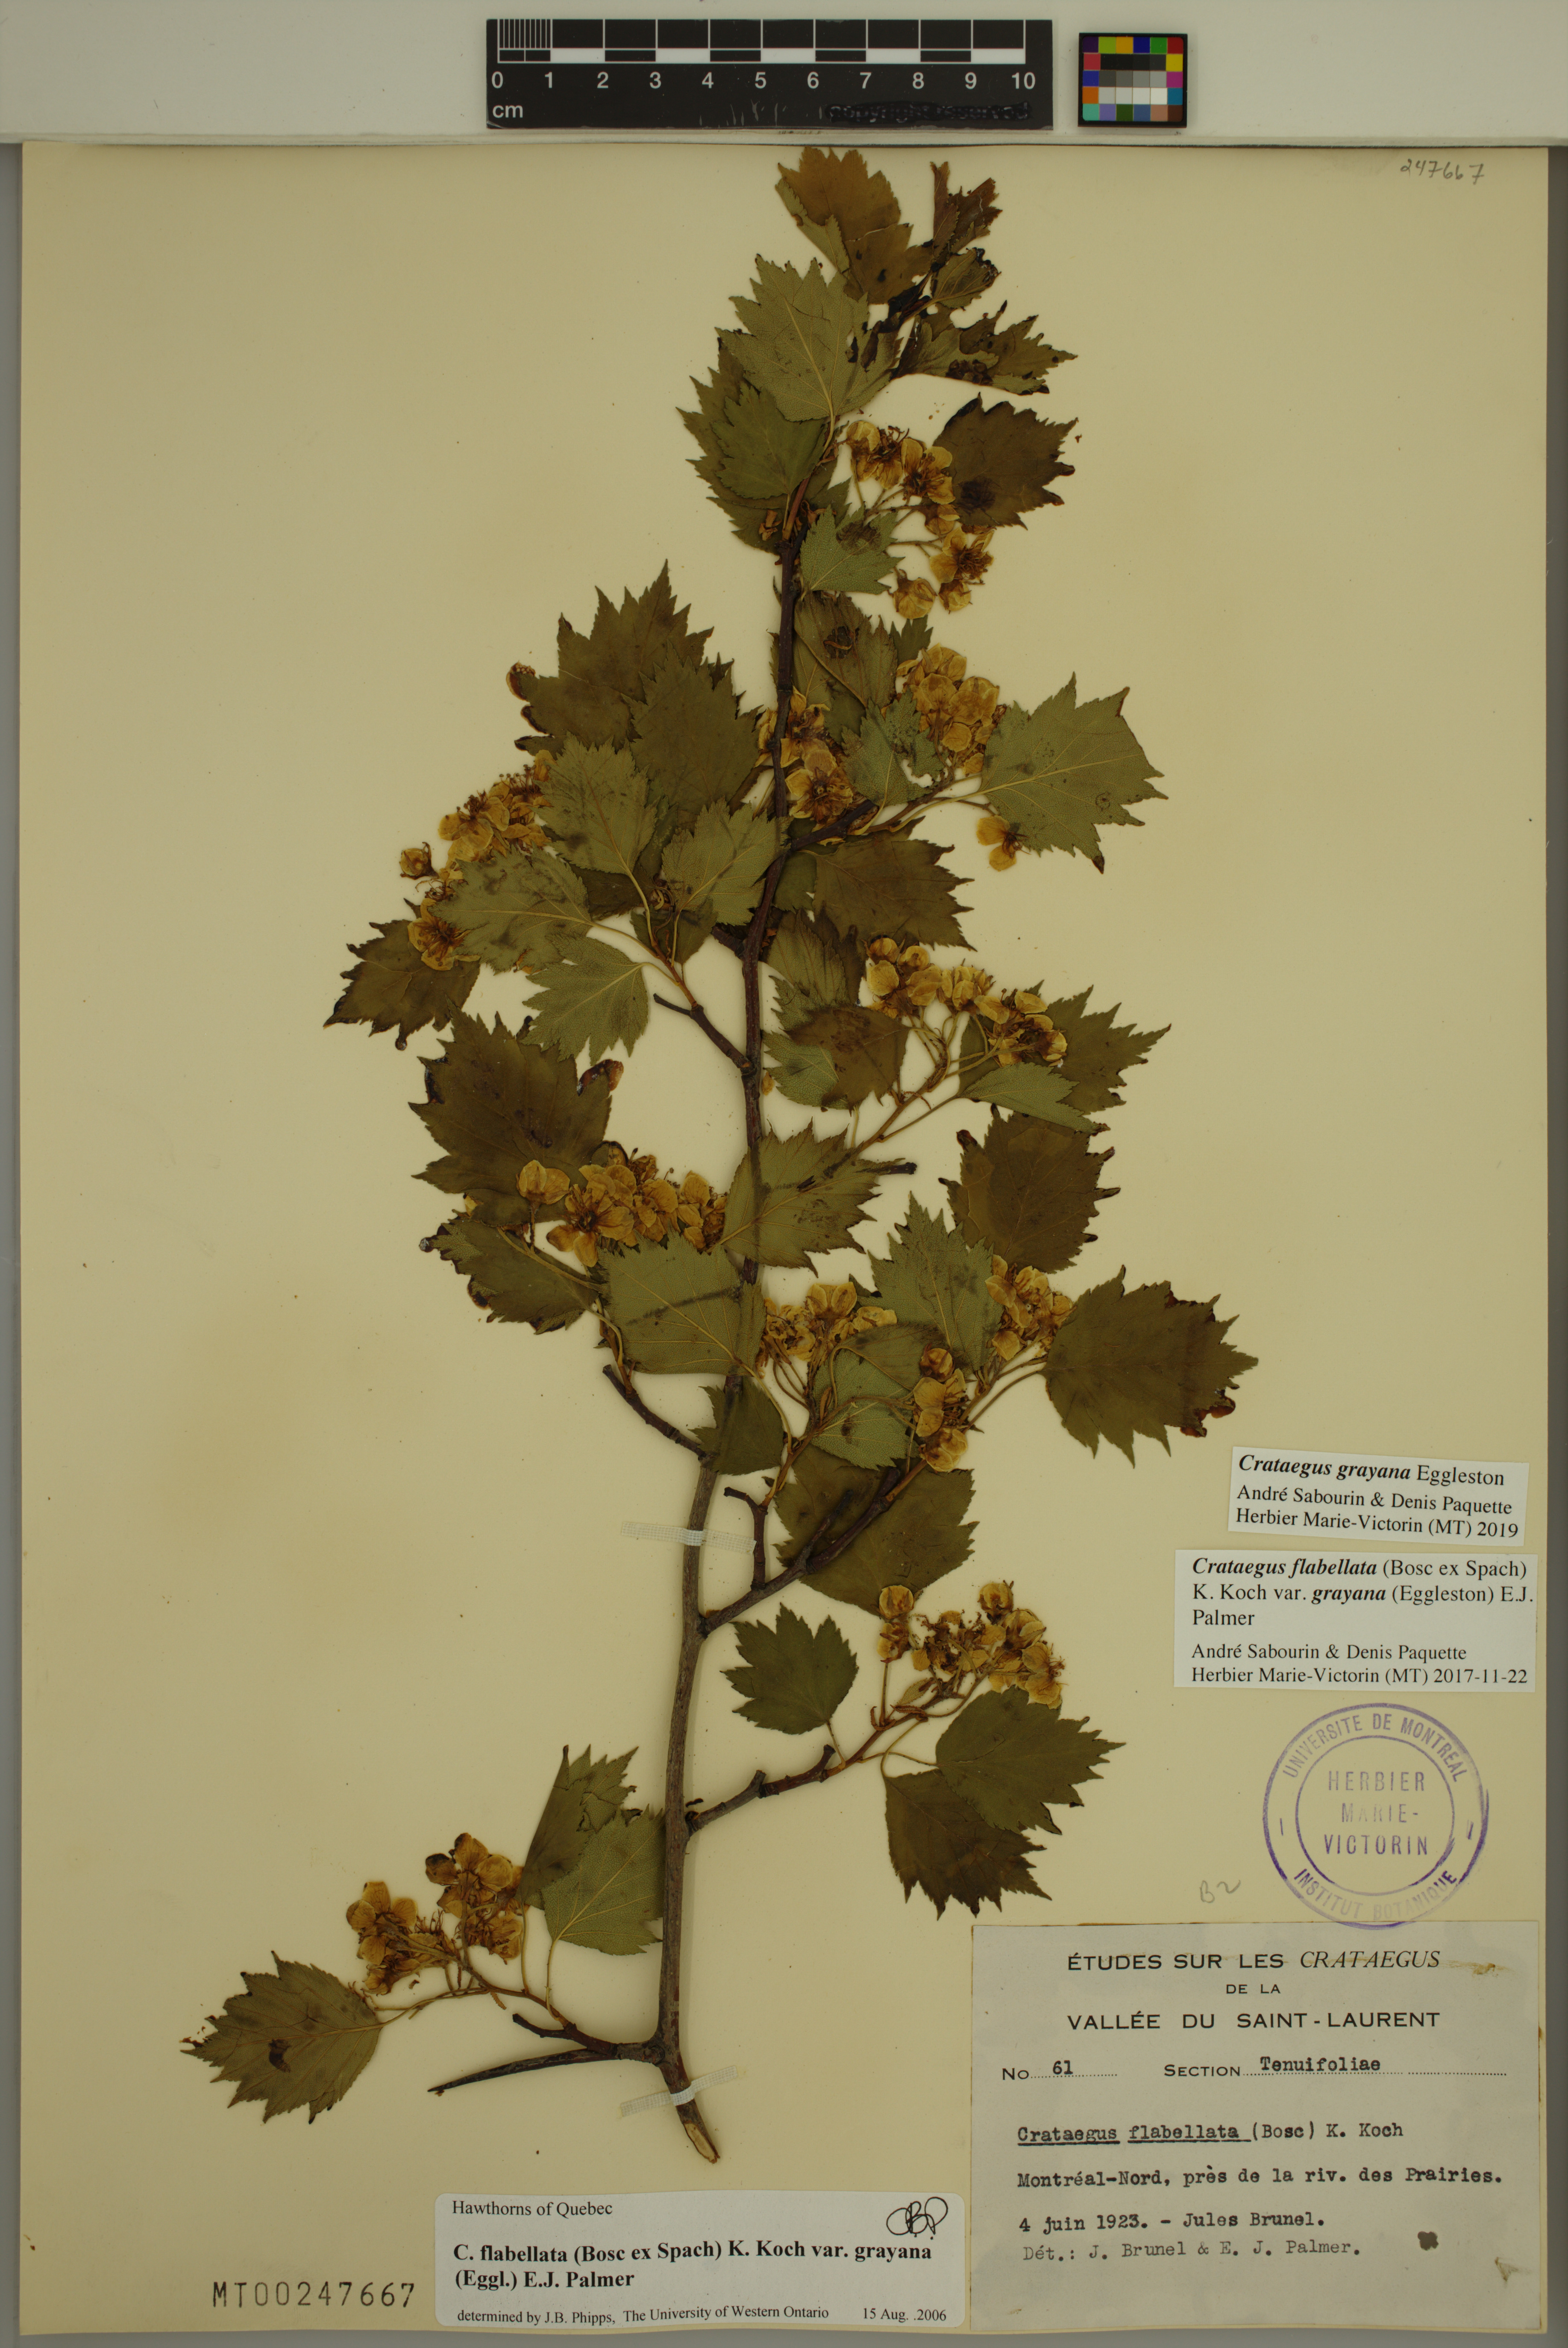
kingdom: Plantae
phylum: Tracheophyta
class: Magnoliopsida
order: Rosales
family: Rosaceae
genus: Crataegus
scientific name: Crataegus schuettei
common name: Schuette's hawthorn
